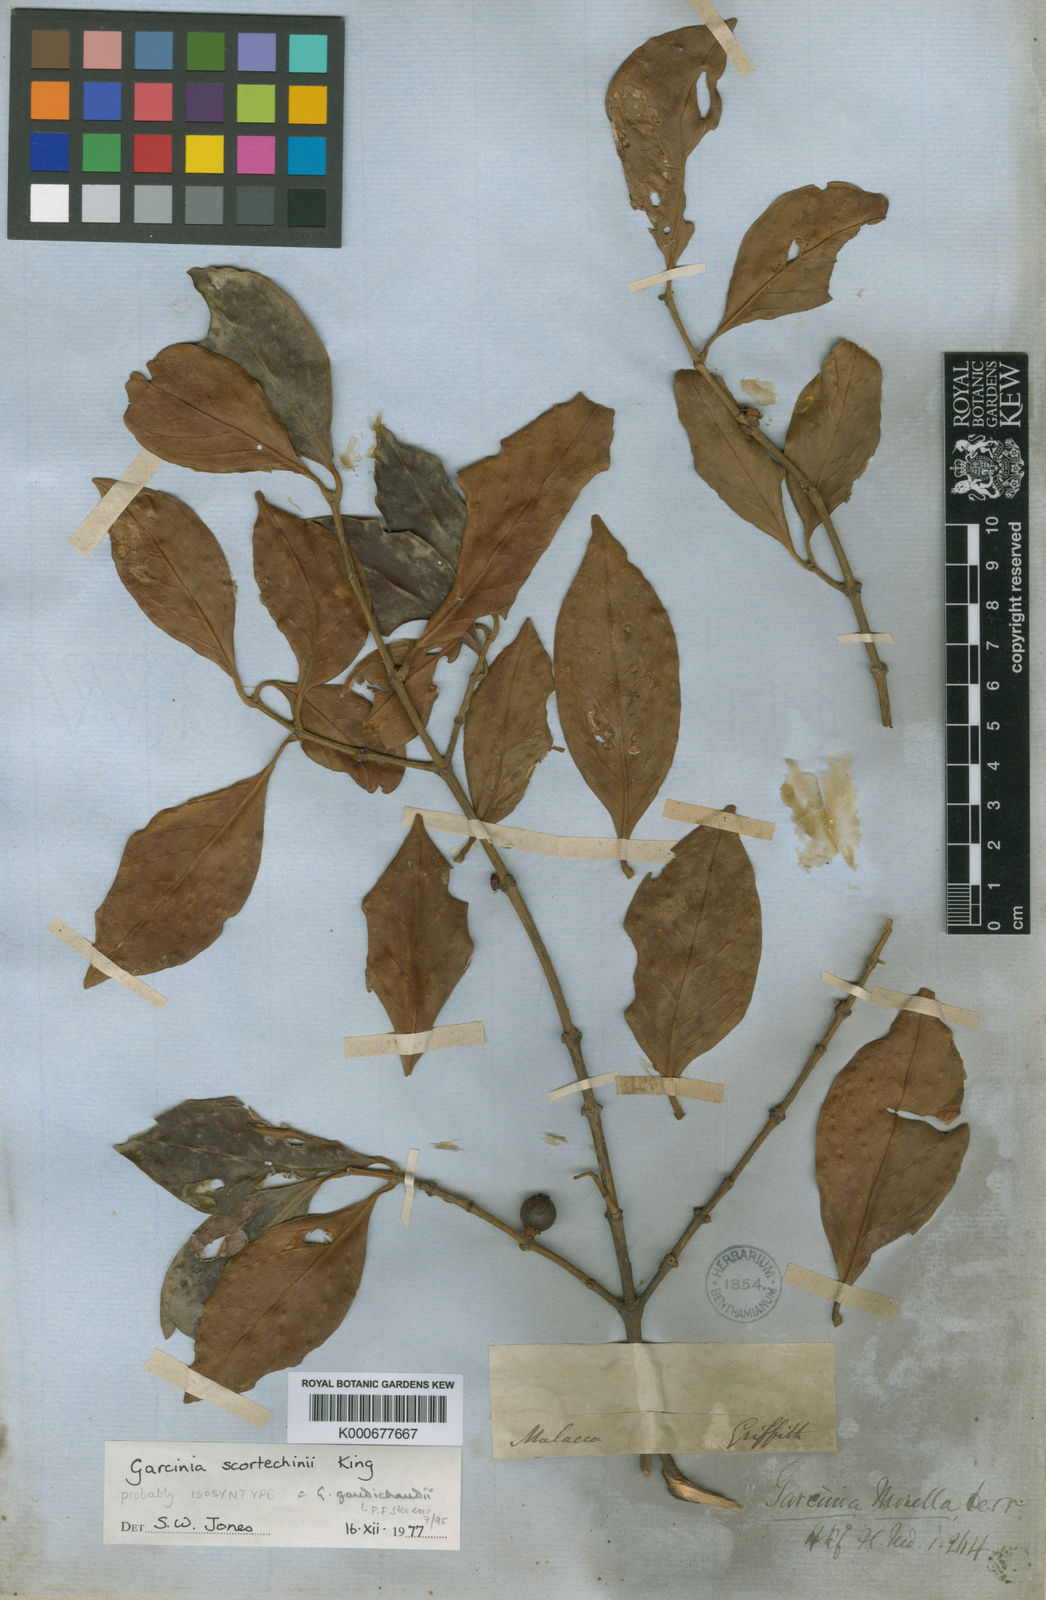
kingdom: Plantae
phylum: Tracheophyta
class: Magnoliopsida
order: Malpighiales
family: Clusiaceae
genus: Garcinia
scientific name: Garcinia gaudichaudii
